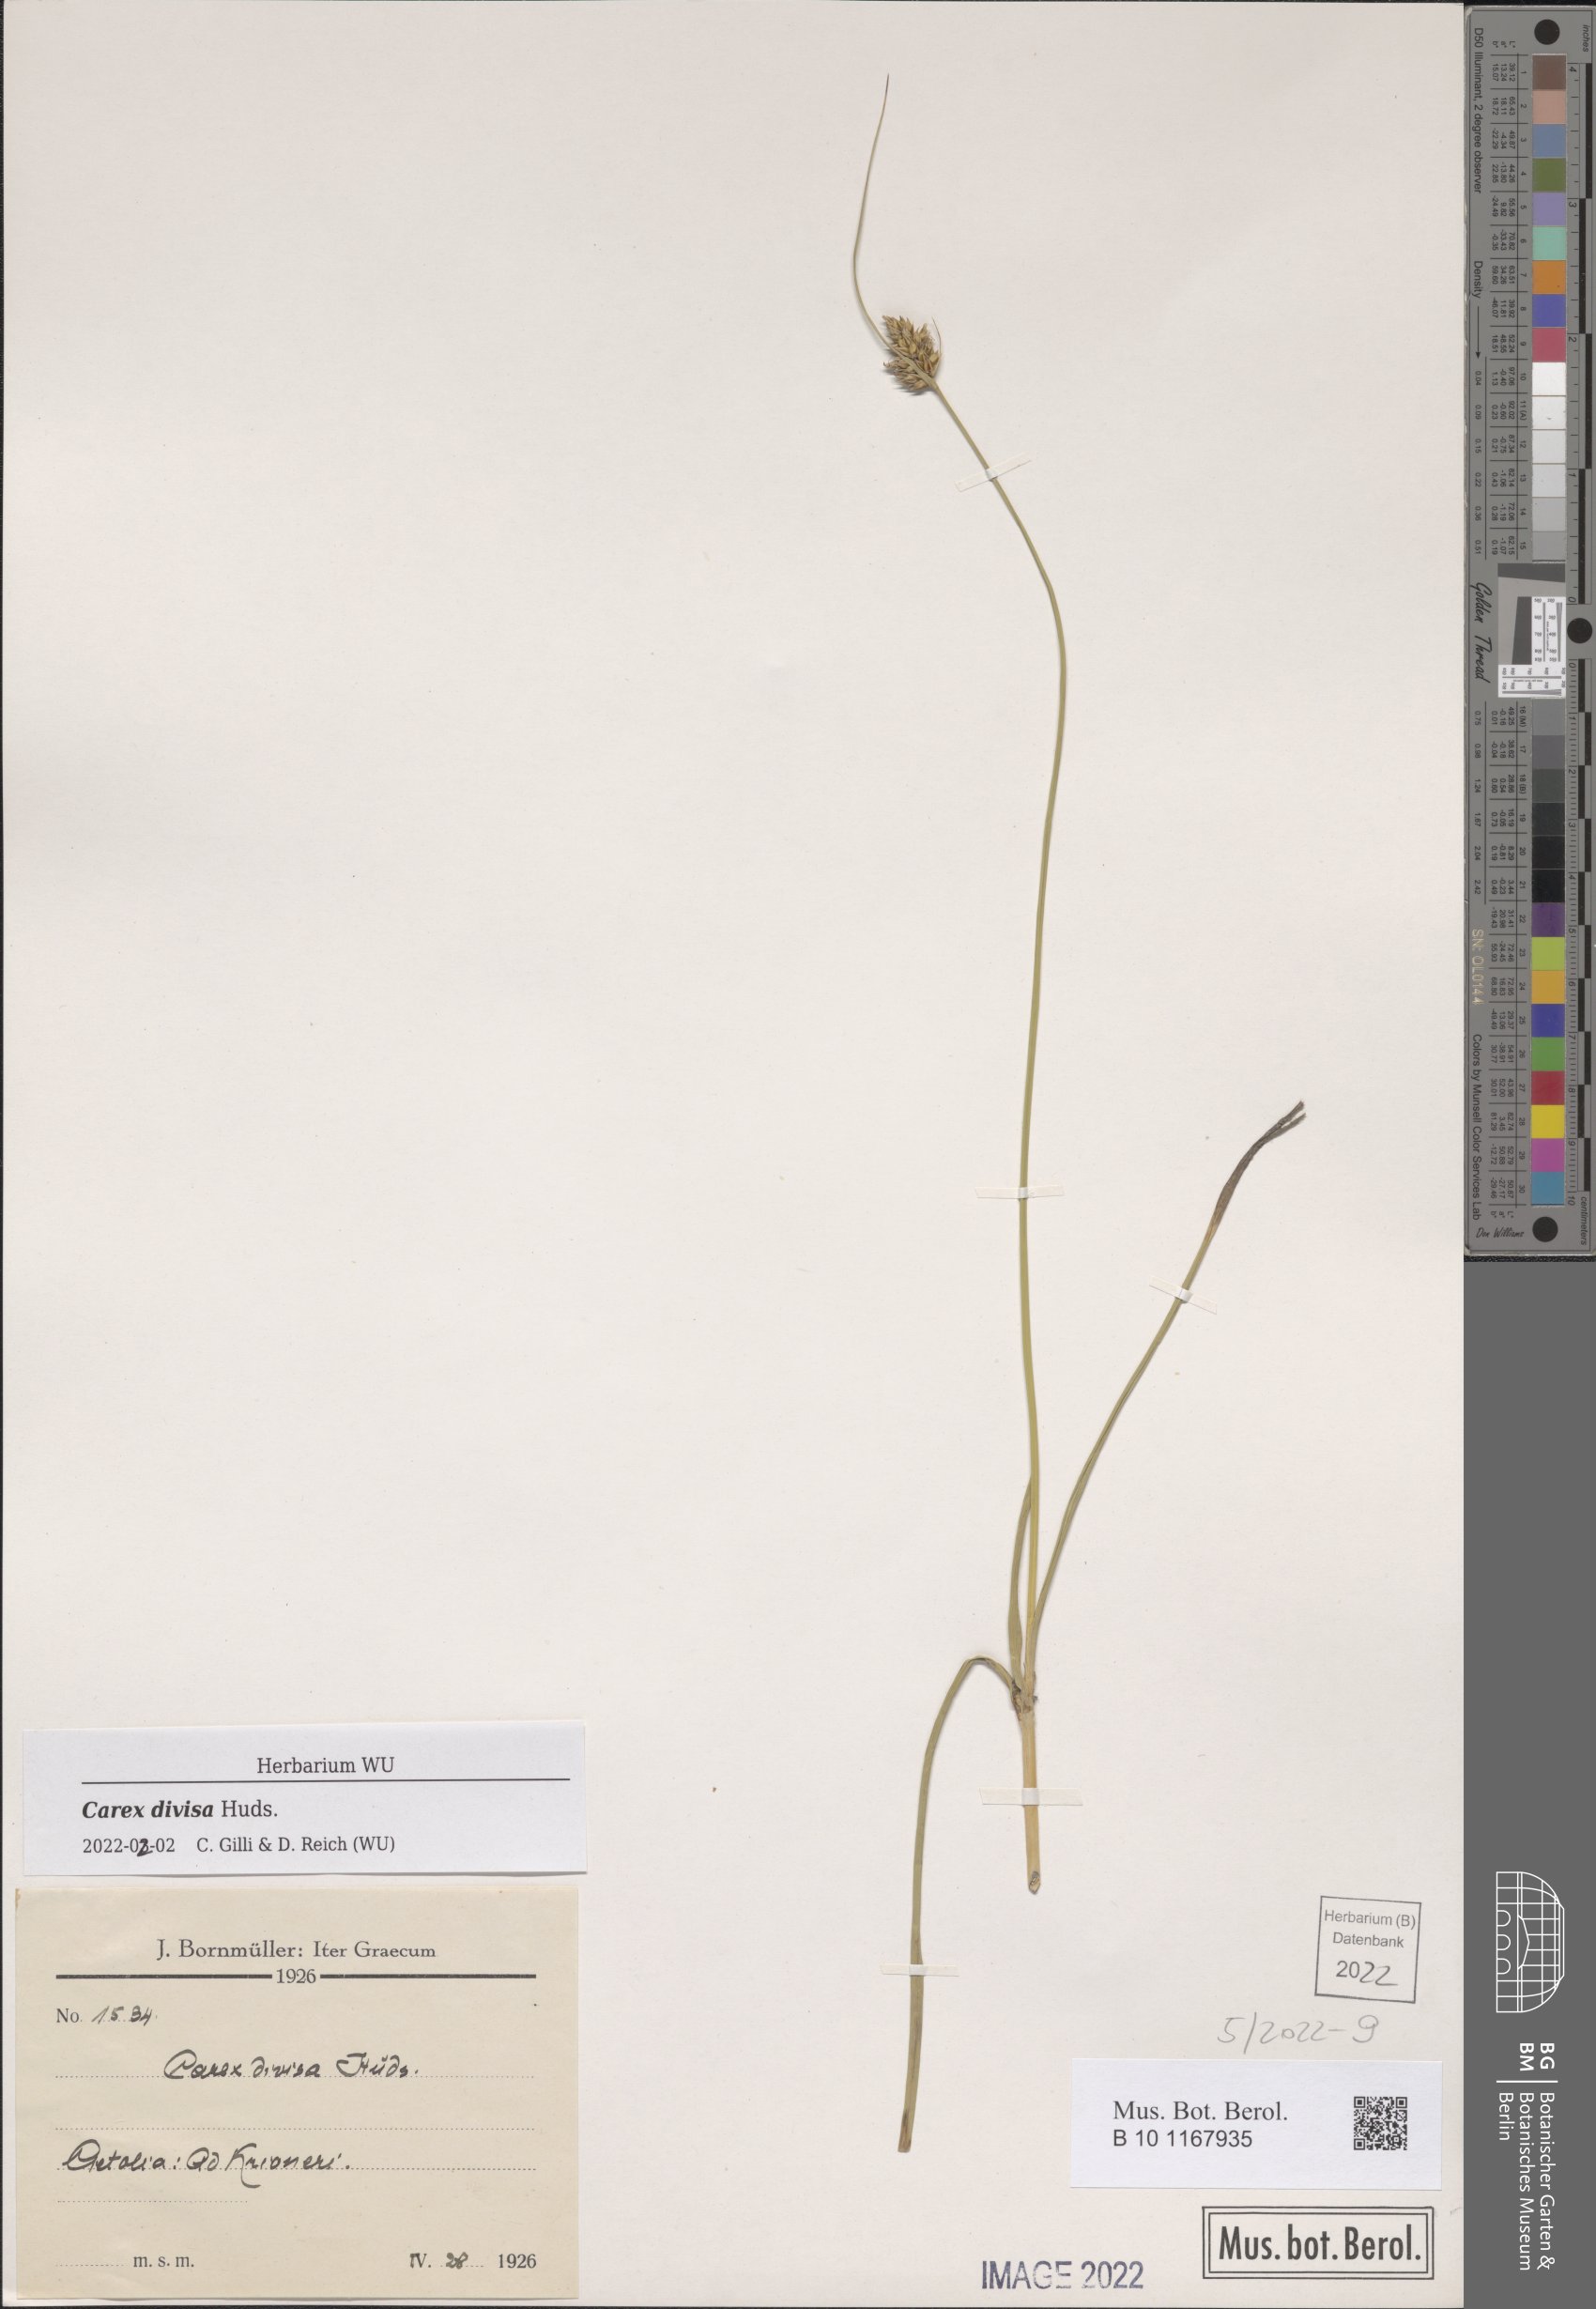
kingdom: Plantae
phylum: Tracheophyta
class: Liliopsida
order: Poales
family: Cyperaceae
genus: Carex
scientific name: Carex divisa
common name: Divided sedge
